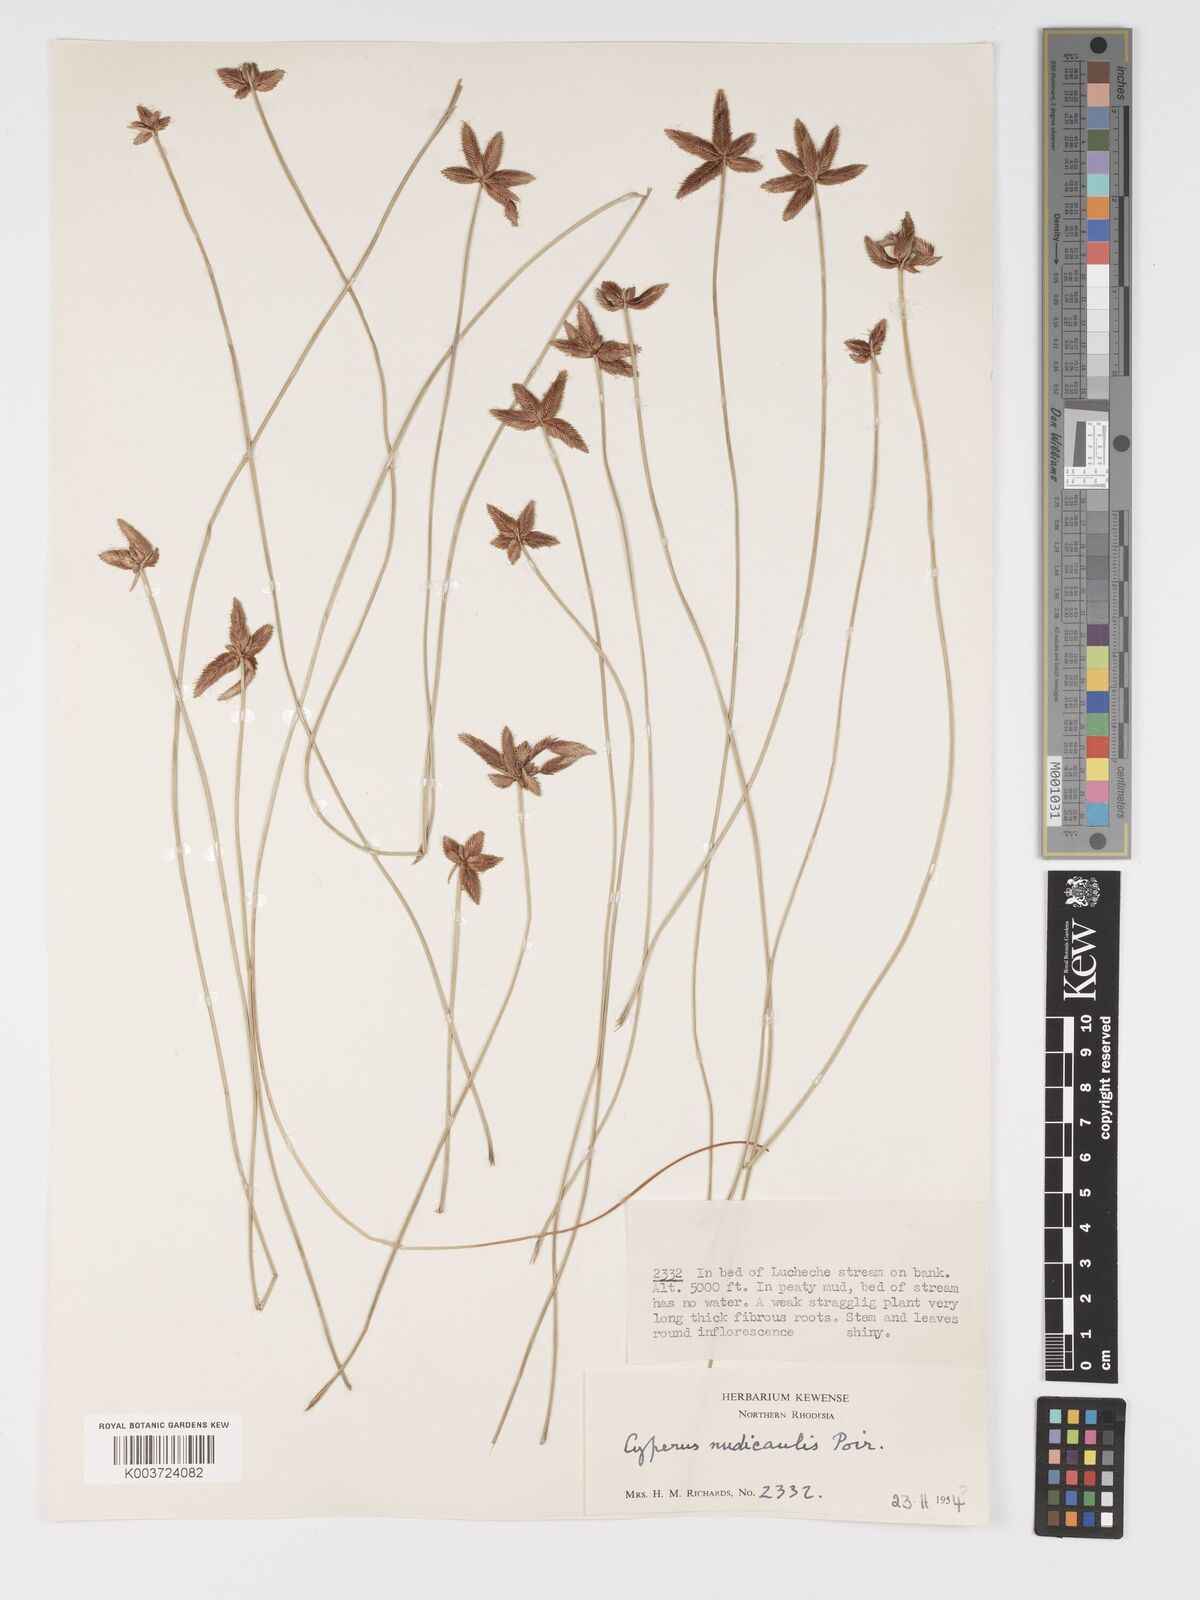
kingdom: Plantae
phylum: Tracheophyta
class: Liliopsida
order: Poales
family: Cyperaceae
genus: Cyperus
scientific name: Cyperus compressus
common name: Poorland flatsedge
